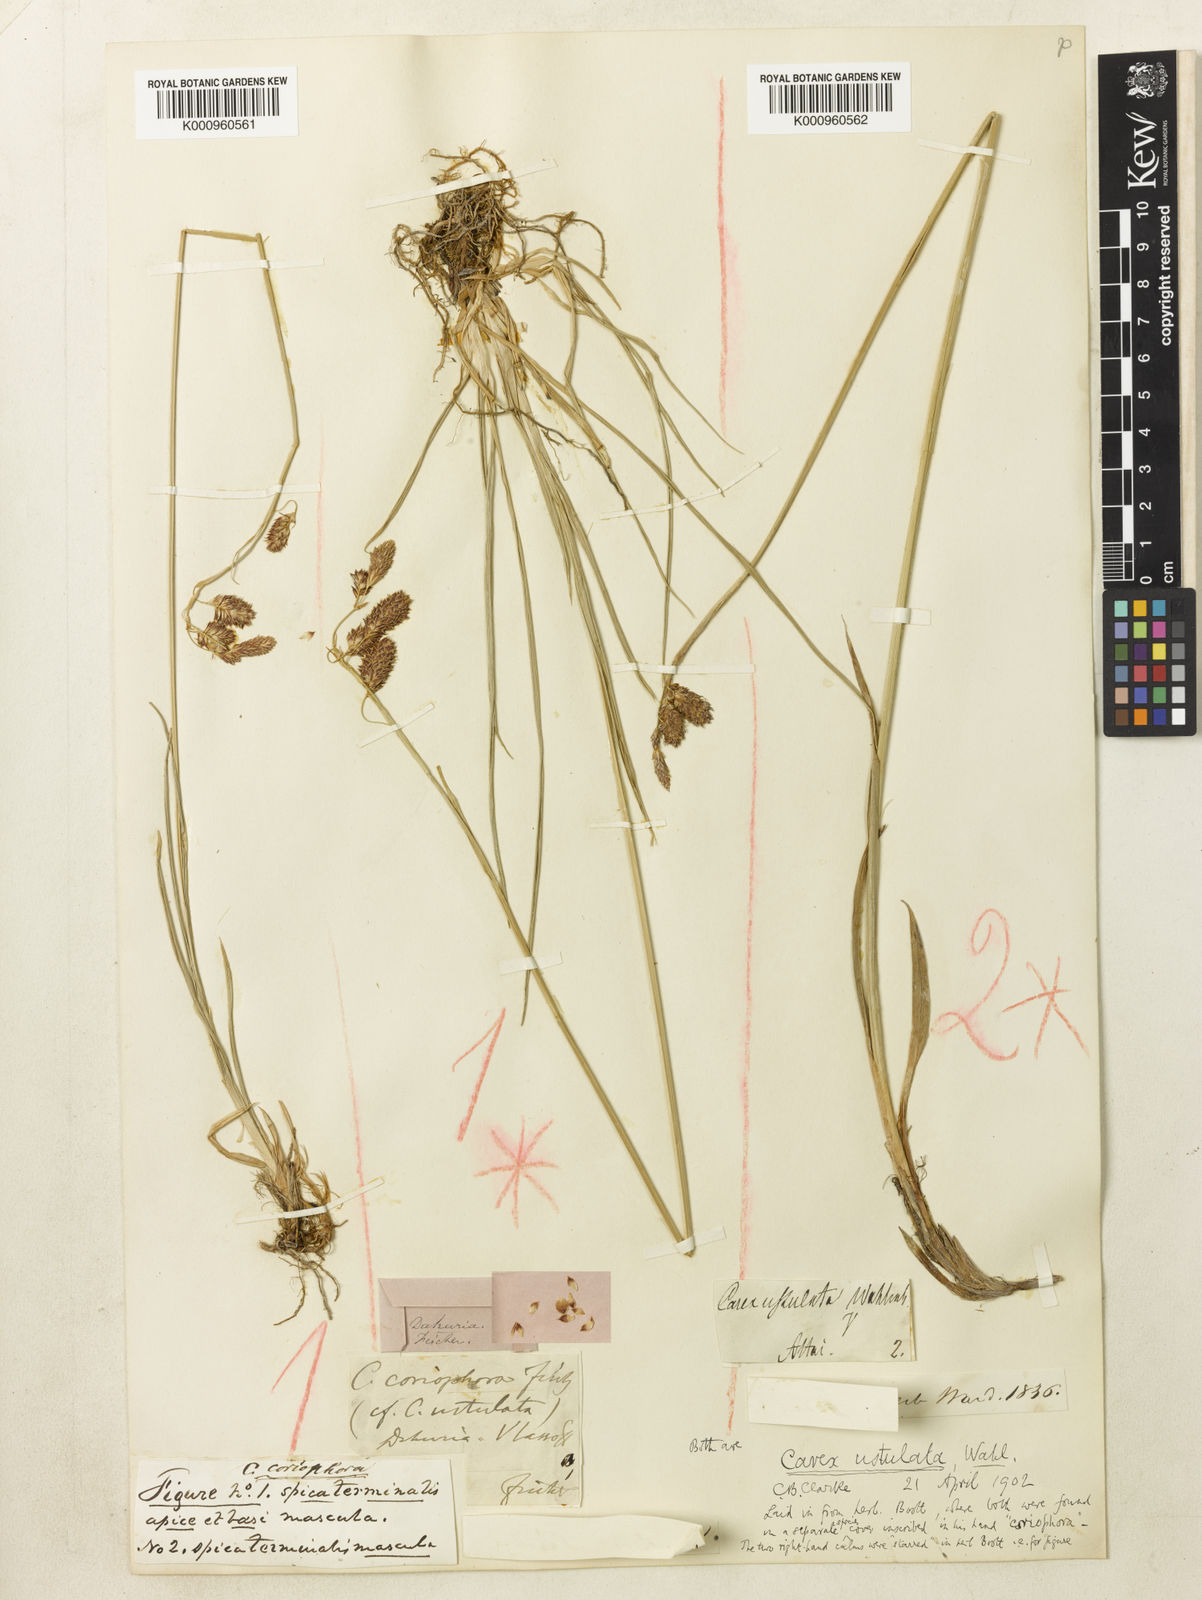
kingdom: Plantae
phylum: Tracheophyta
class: Liliopsida
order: Poales
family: Cyperaceae
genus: Carex
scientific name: Carex atrofusca
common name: Scorched alpine-sedge
